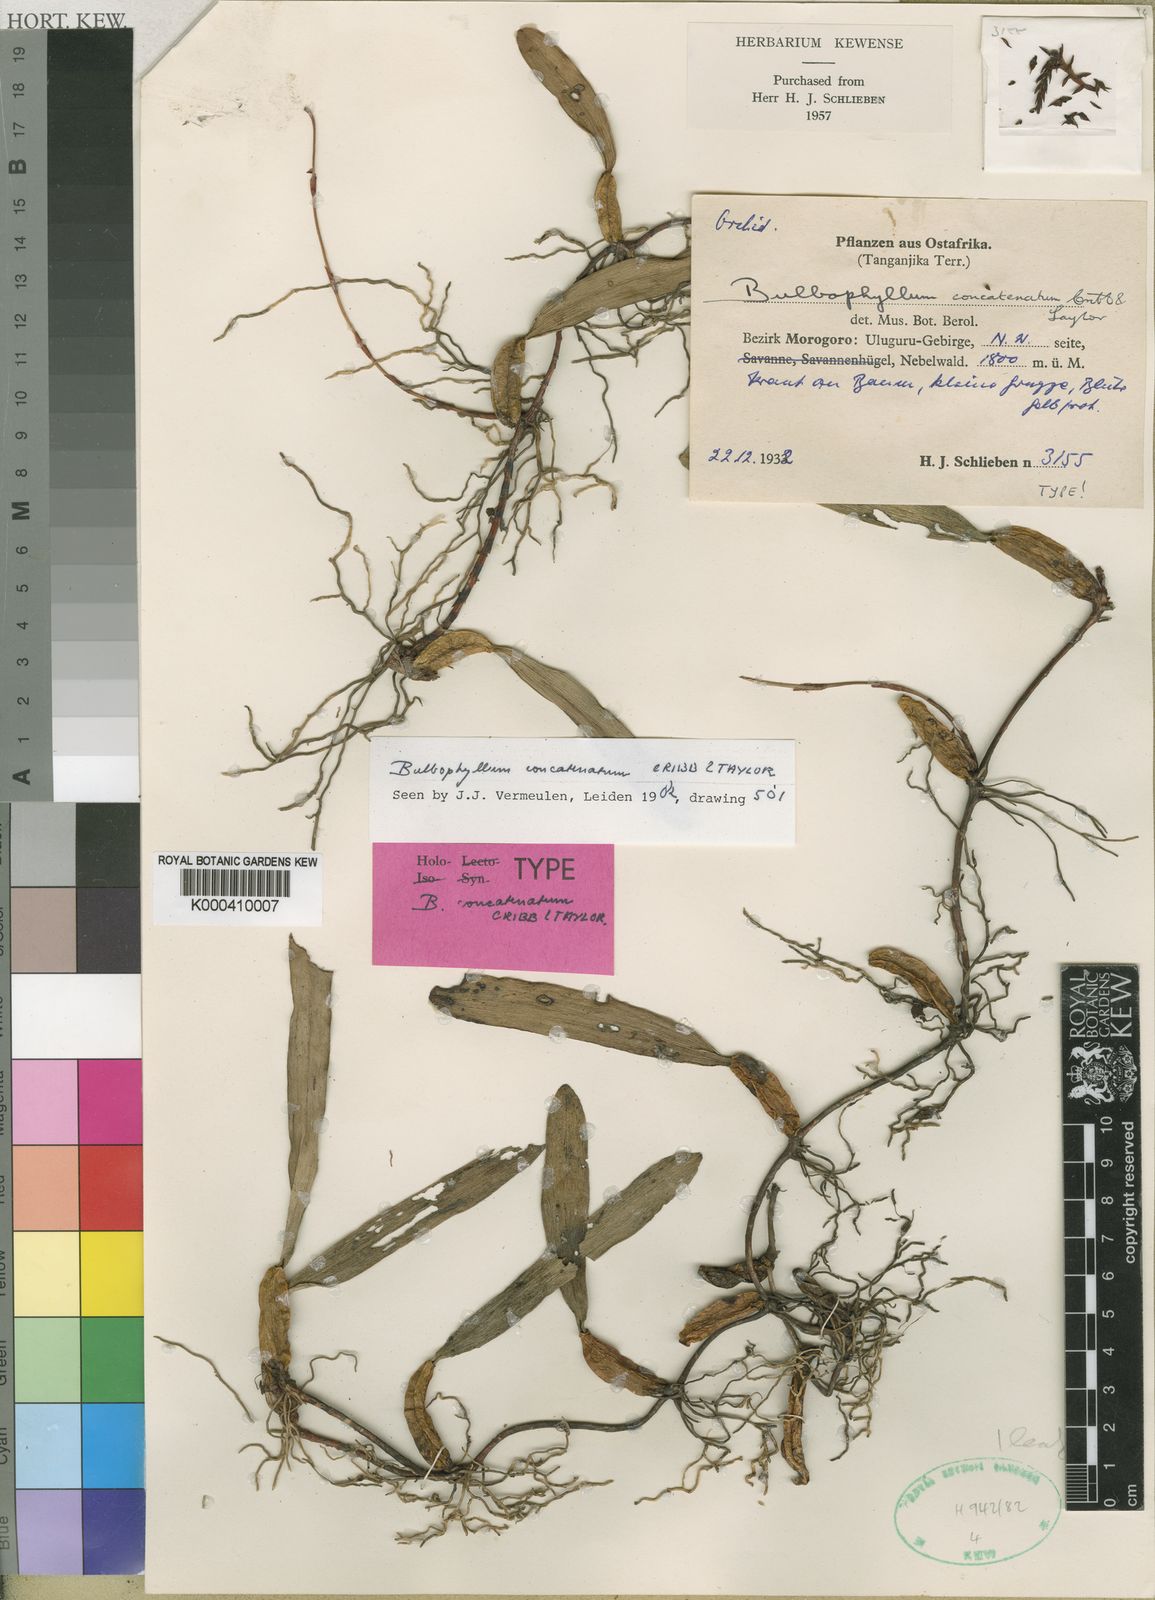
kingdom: Plantae
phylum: Tracheophyta
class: Liliopsida
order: Asparagales
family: Orchidaceae
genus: Bulbophyllum
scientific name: Bulbophyllum concatenatum
